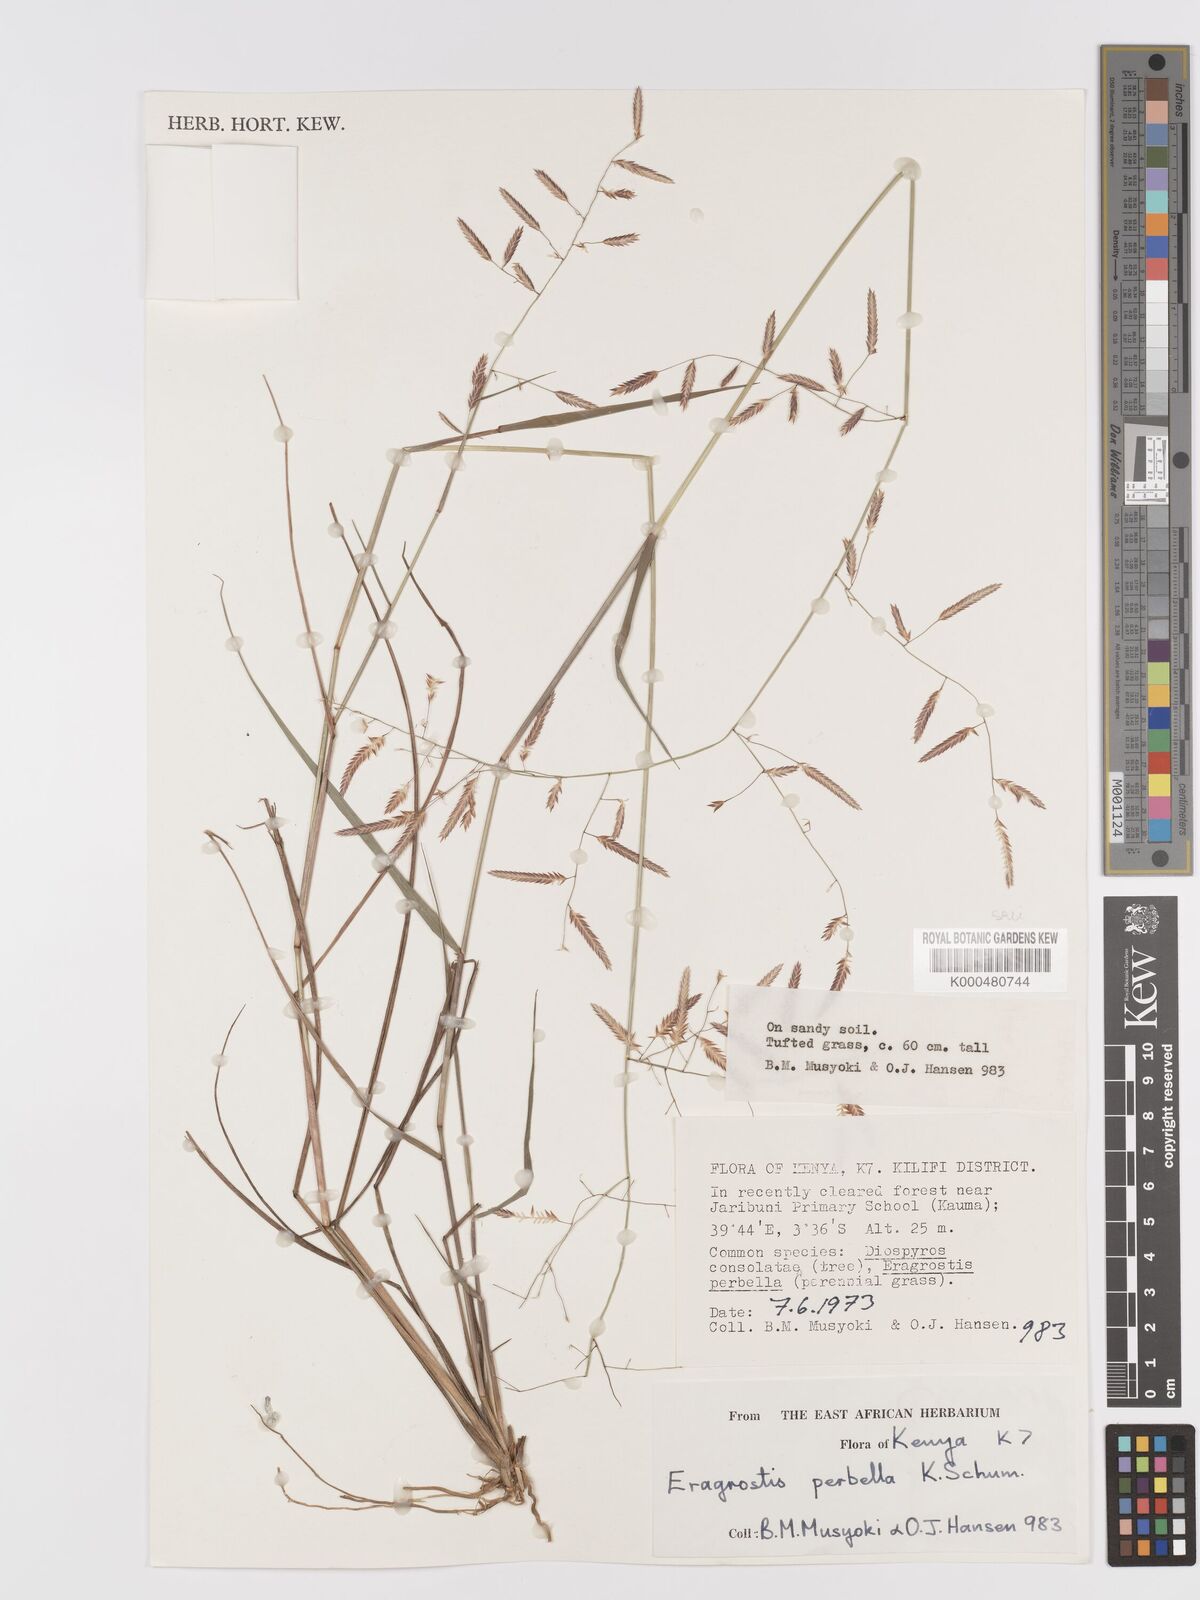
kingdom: Plantae
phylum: Tracheophyta
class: Liliopsida
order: Poales
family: Poaceae
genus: Eragrostis
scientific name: Eragrostis perbella
